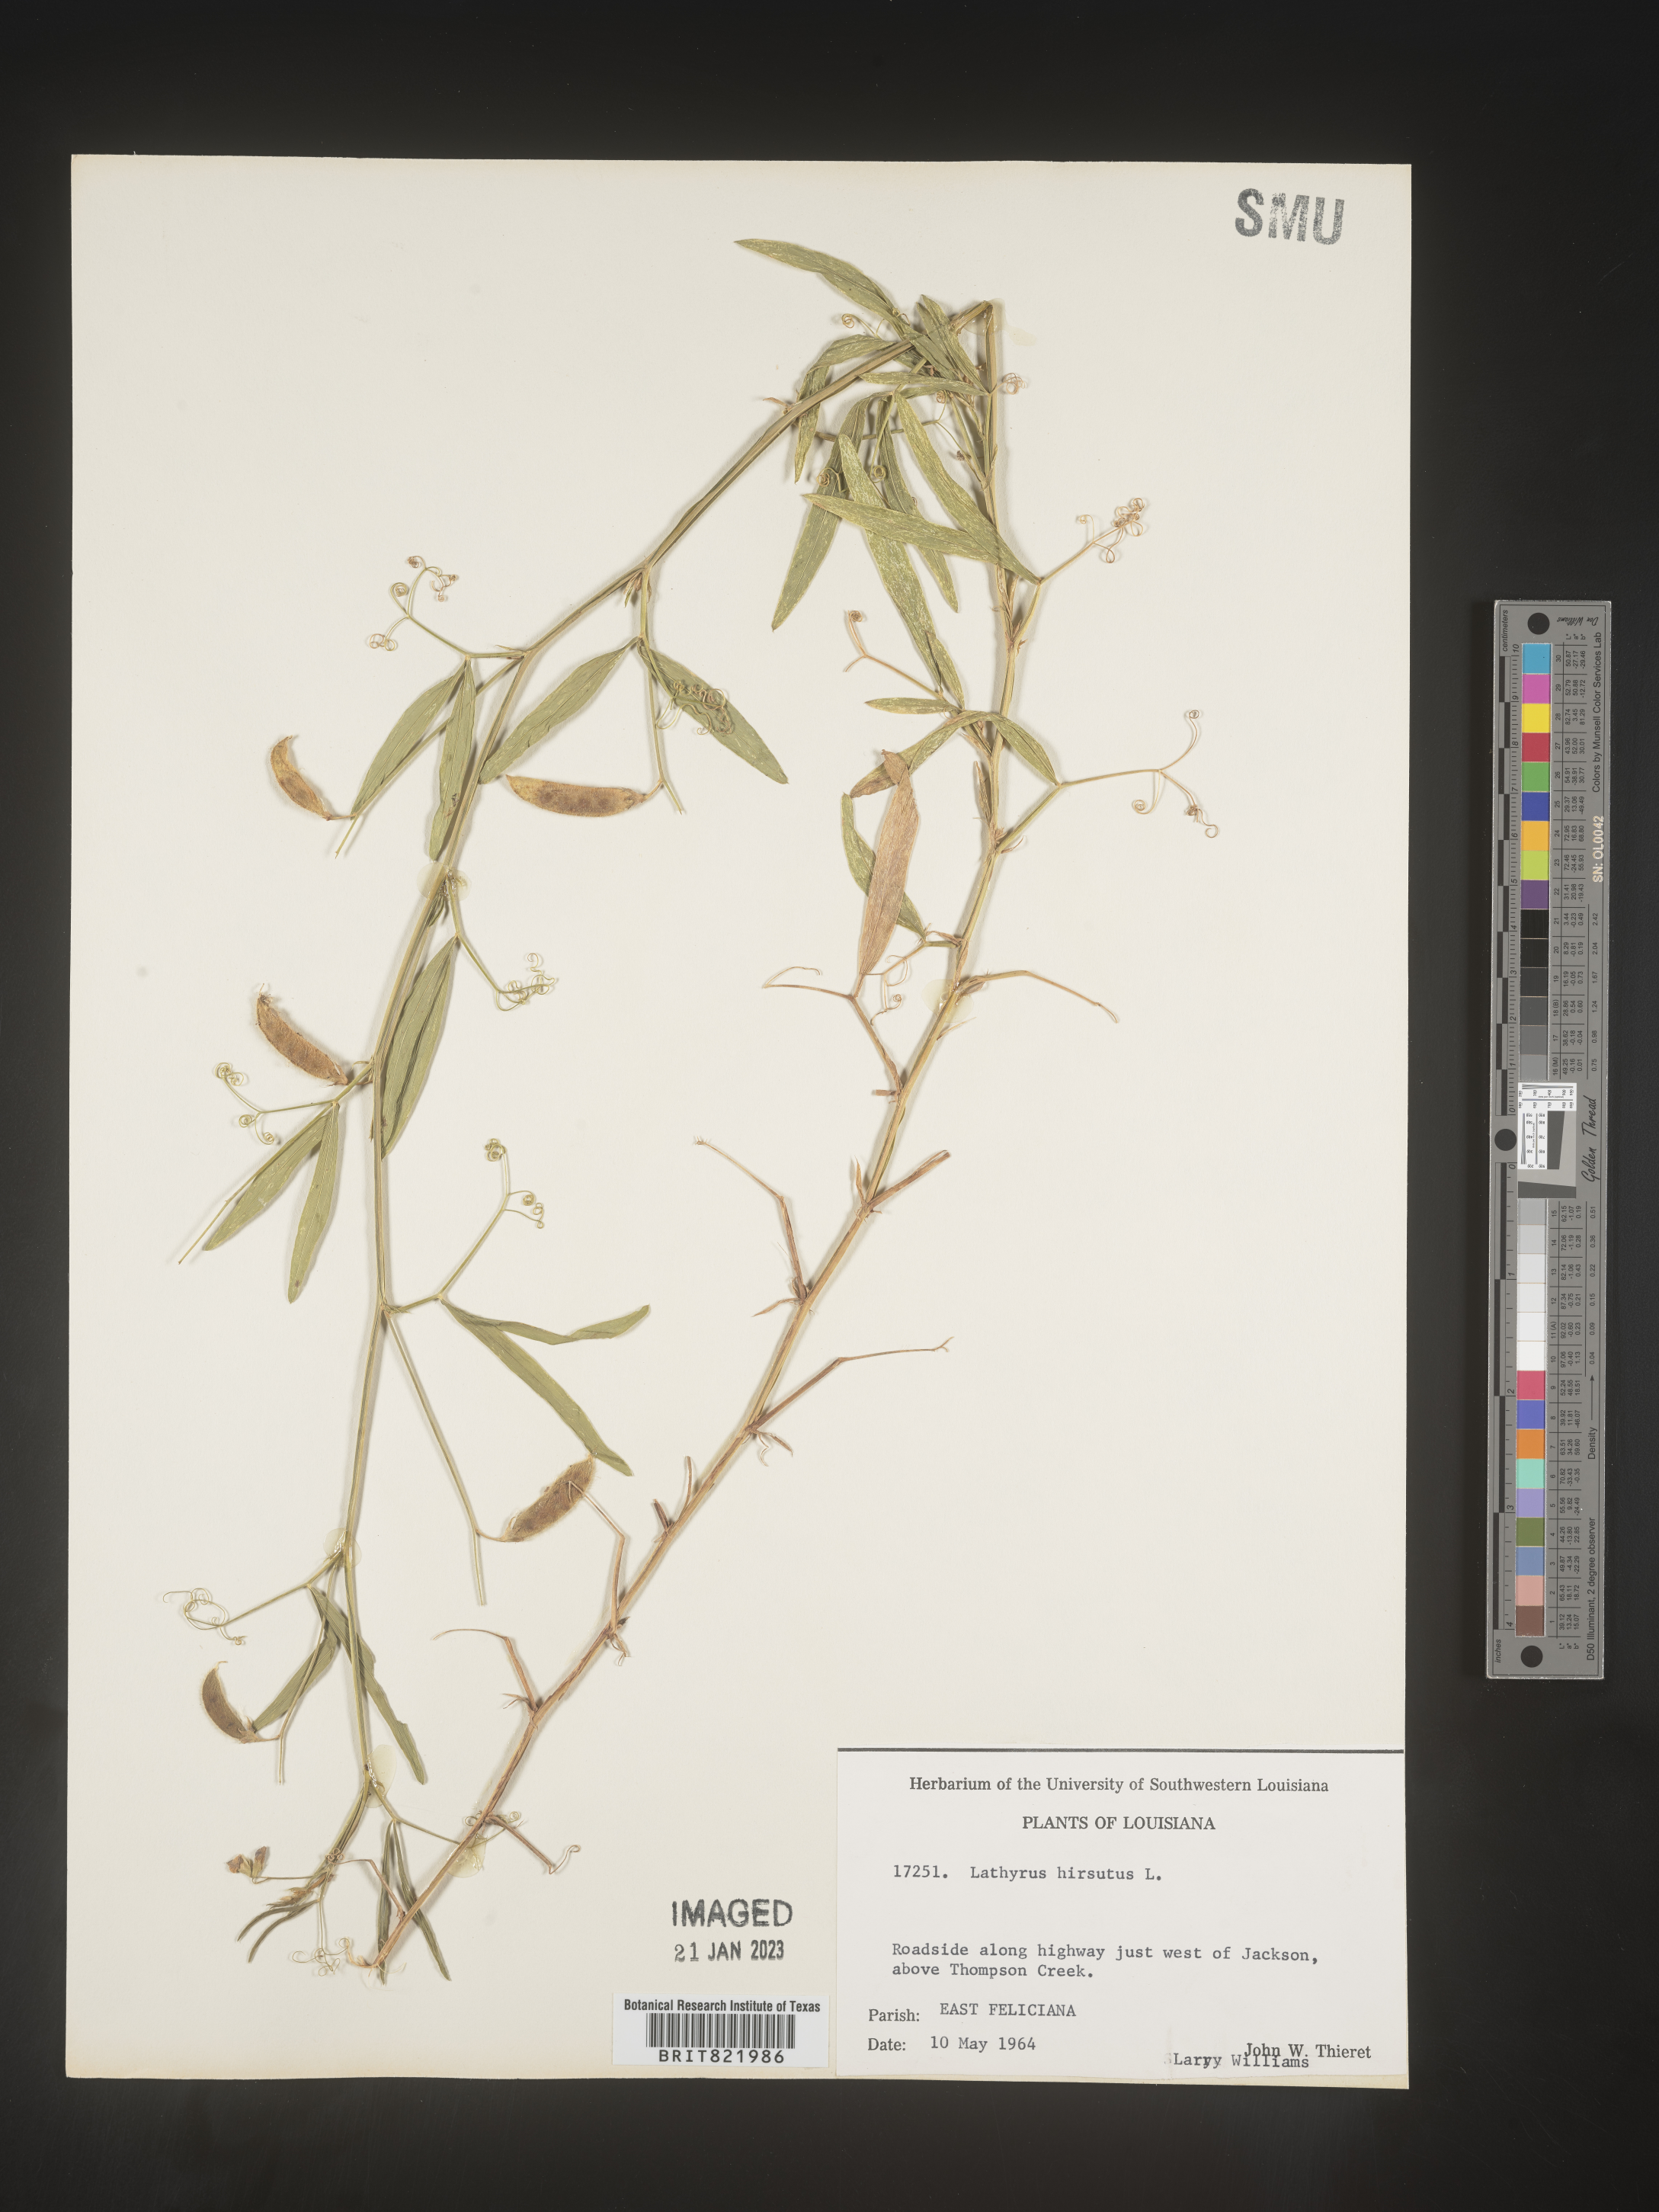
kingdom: Plantae
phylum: Tracheophyta
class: Magnoliopsida
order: Fabales
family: Fabaceae
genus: Lathyrus
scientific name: Lathyrus hirsutus
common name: Hairy vetchling
